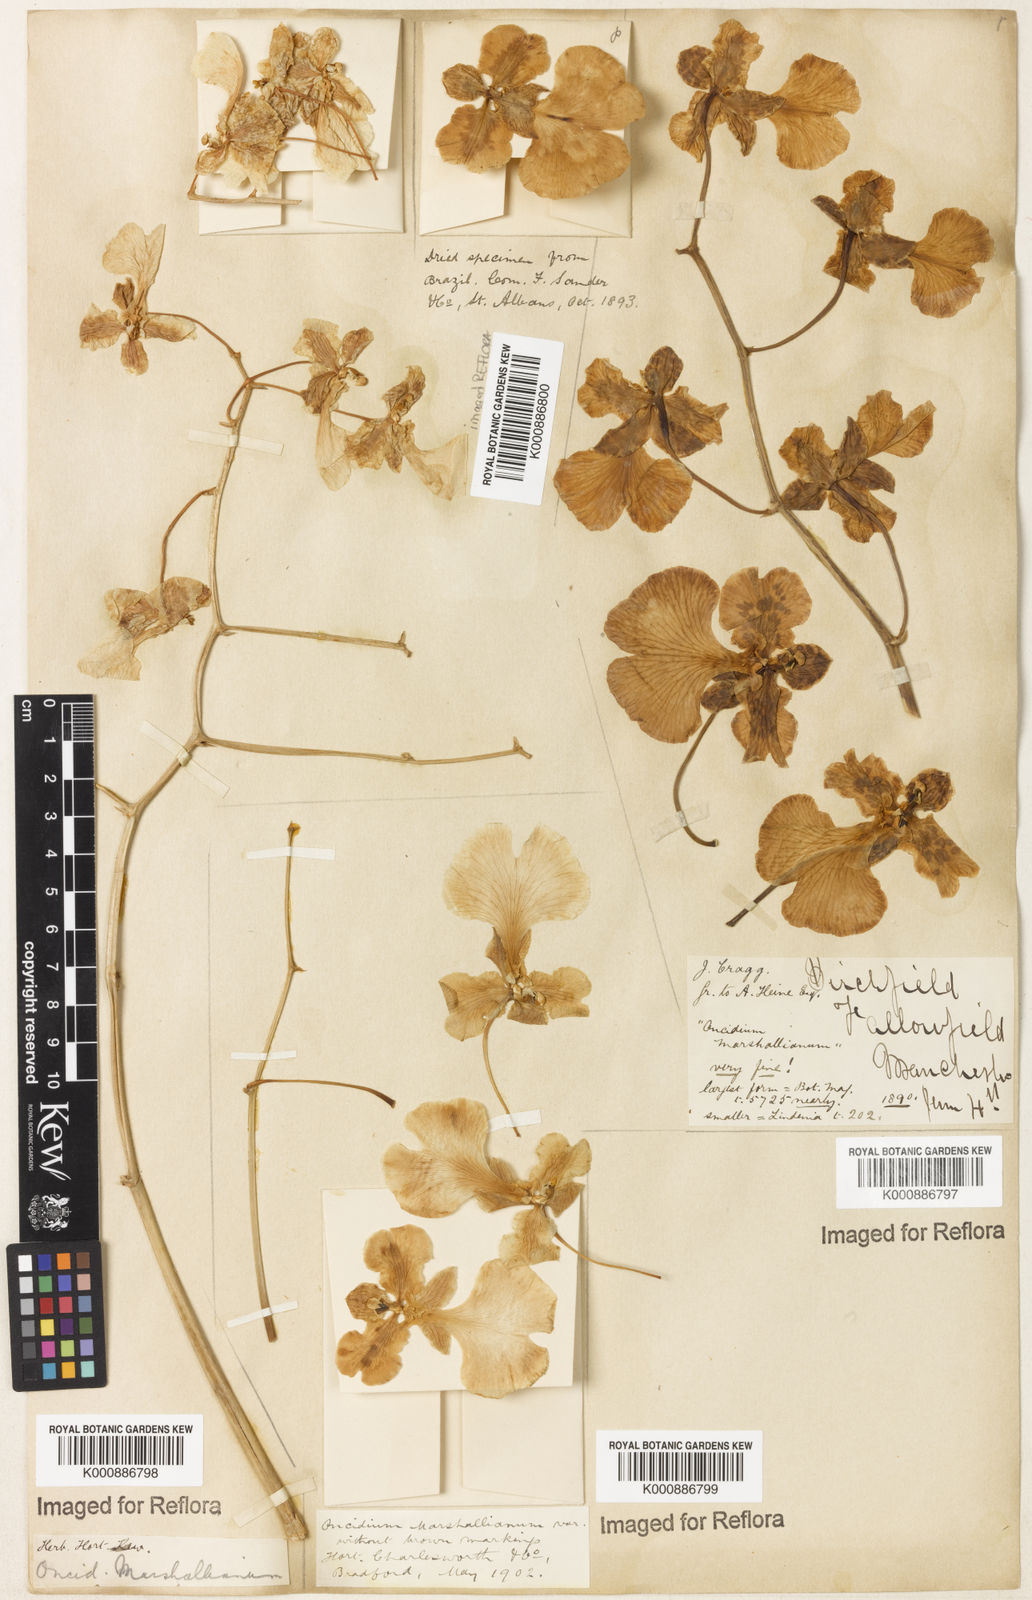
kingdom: Plantae
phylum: Tracheophyta
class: Liliopsida
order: Asparagales
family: Orchidaceae
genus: Gomesa
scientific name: Gomesa pectoralis
